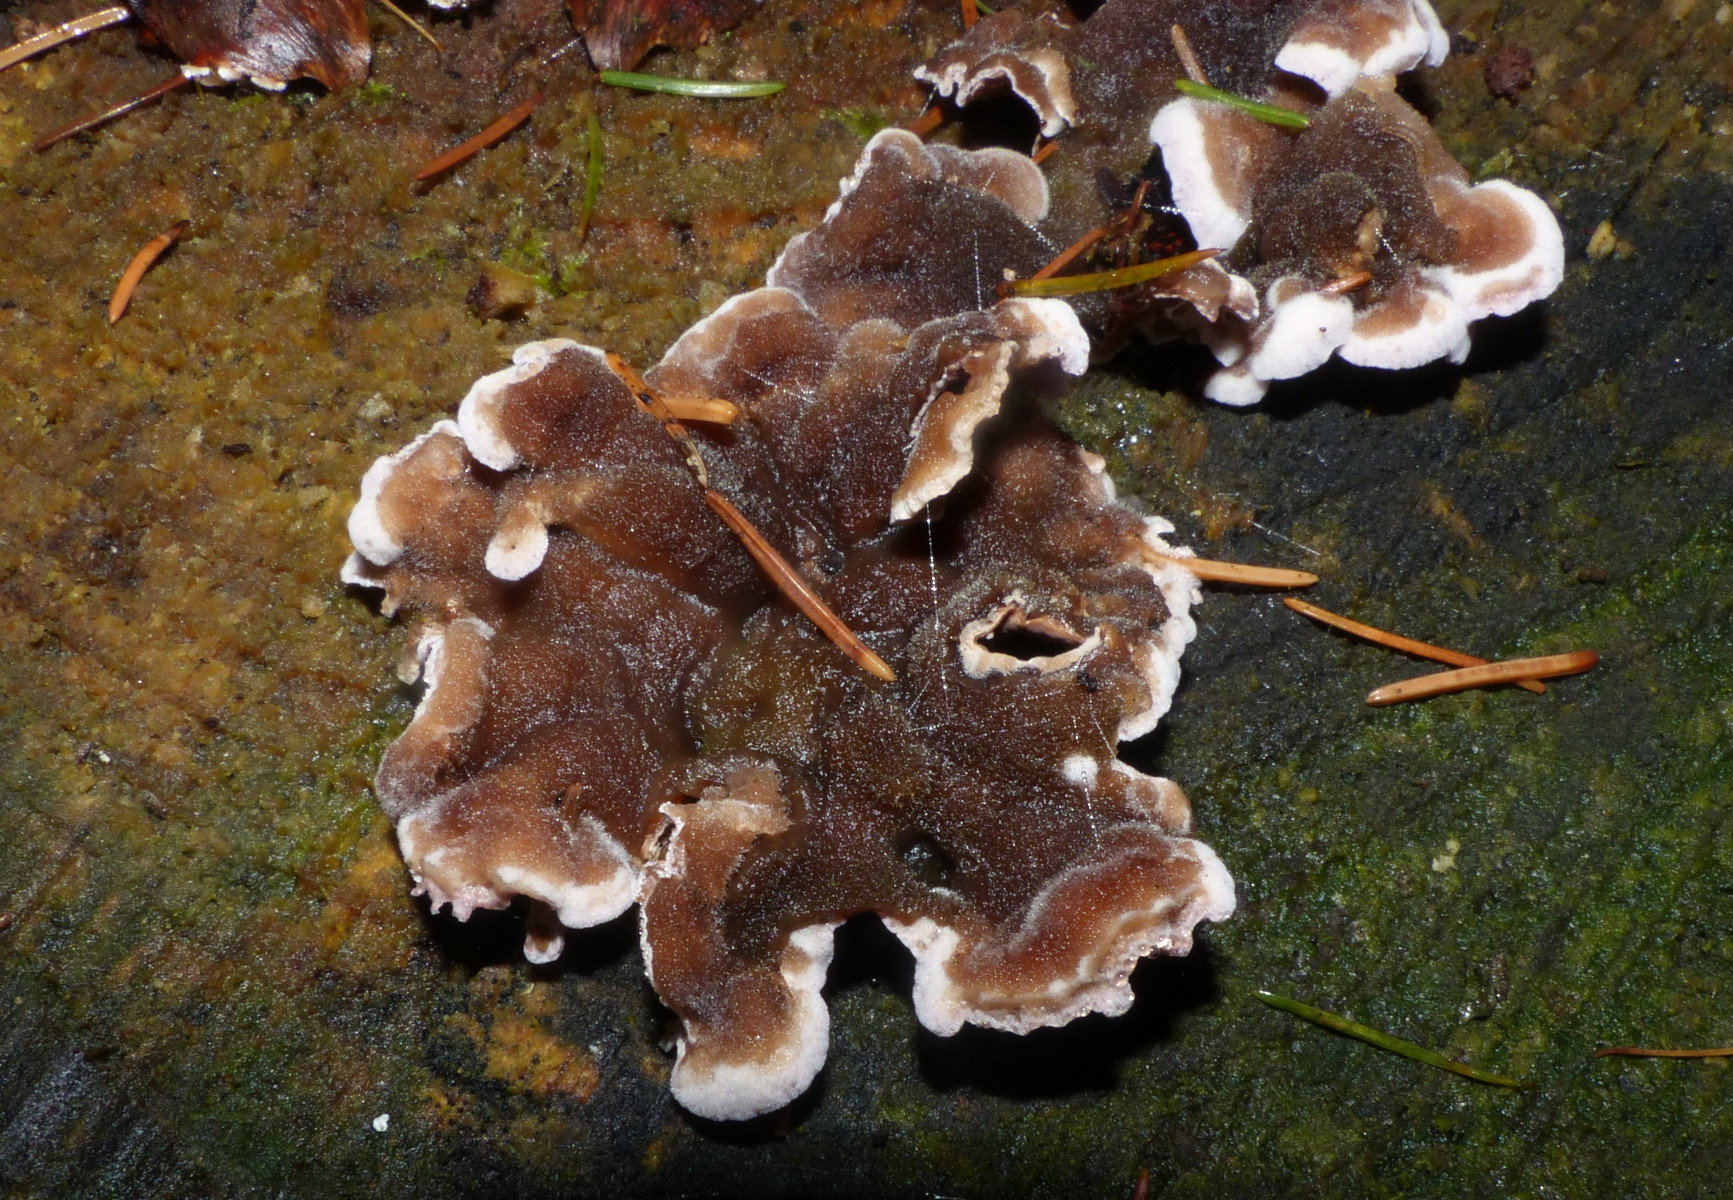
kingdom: Fungi
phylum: Basidiomycota
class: Agaricomycetes
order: Agaricales
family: Cyphellaceae
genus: Chondrostereum
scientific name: Chondrostereum purpureum
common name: purpurlædersvamp
